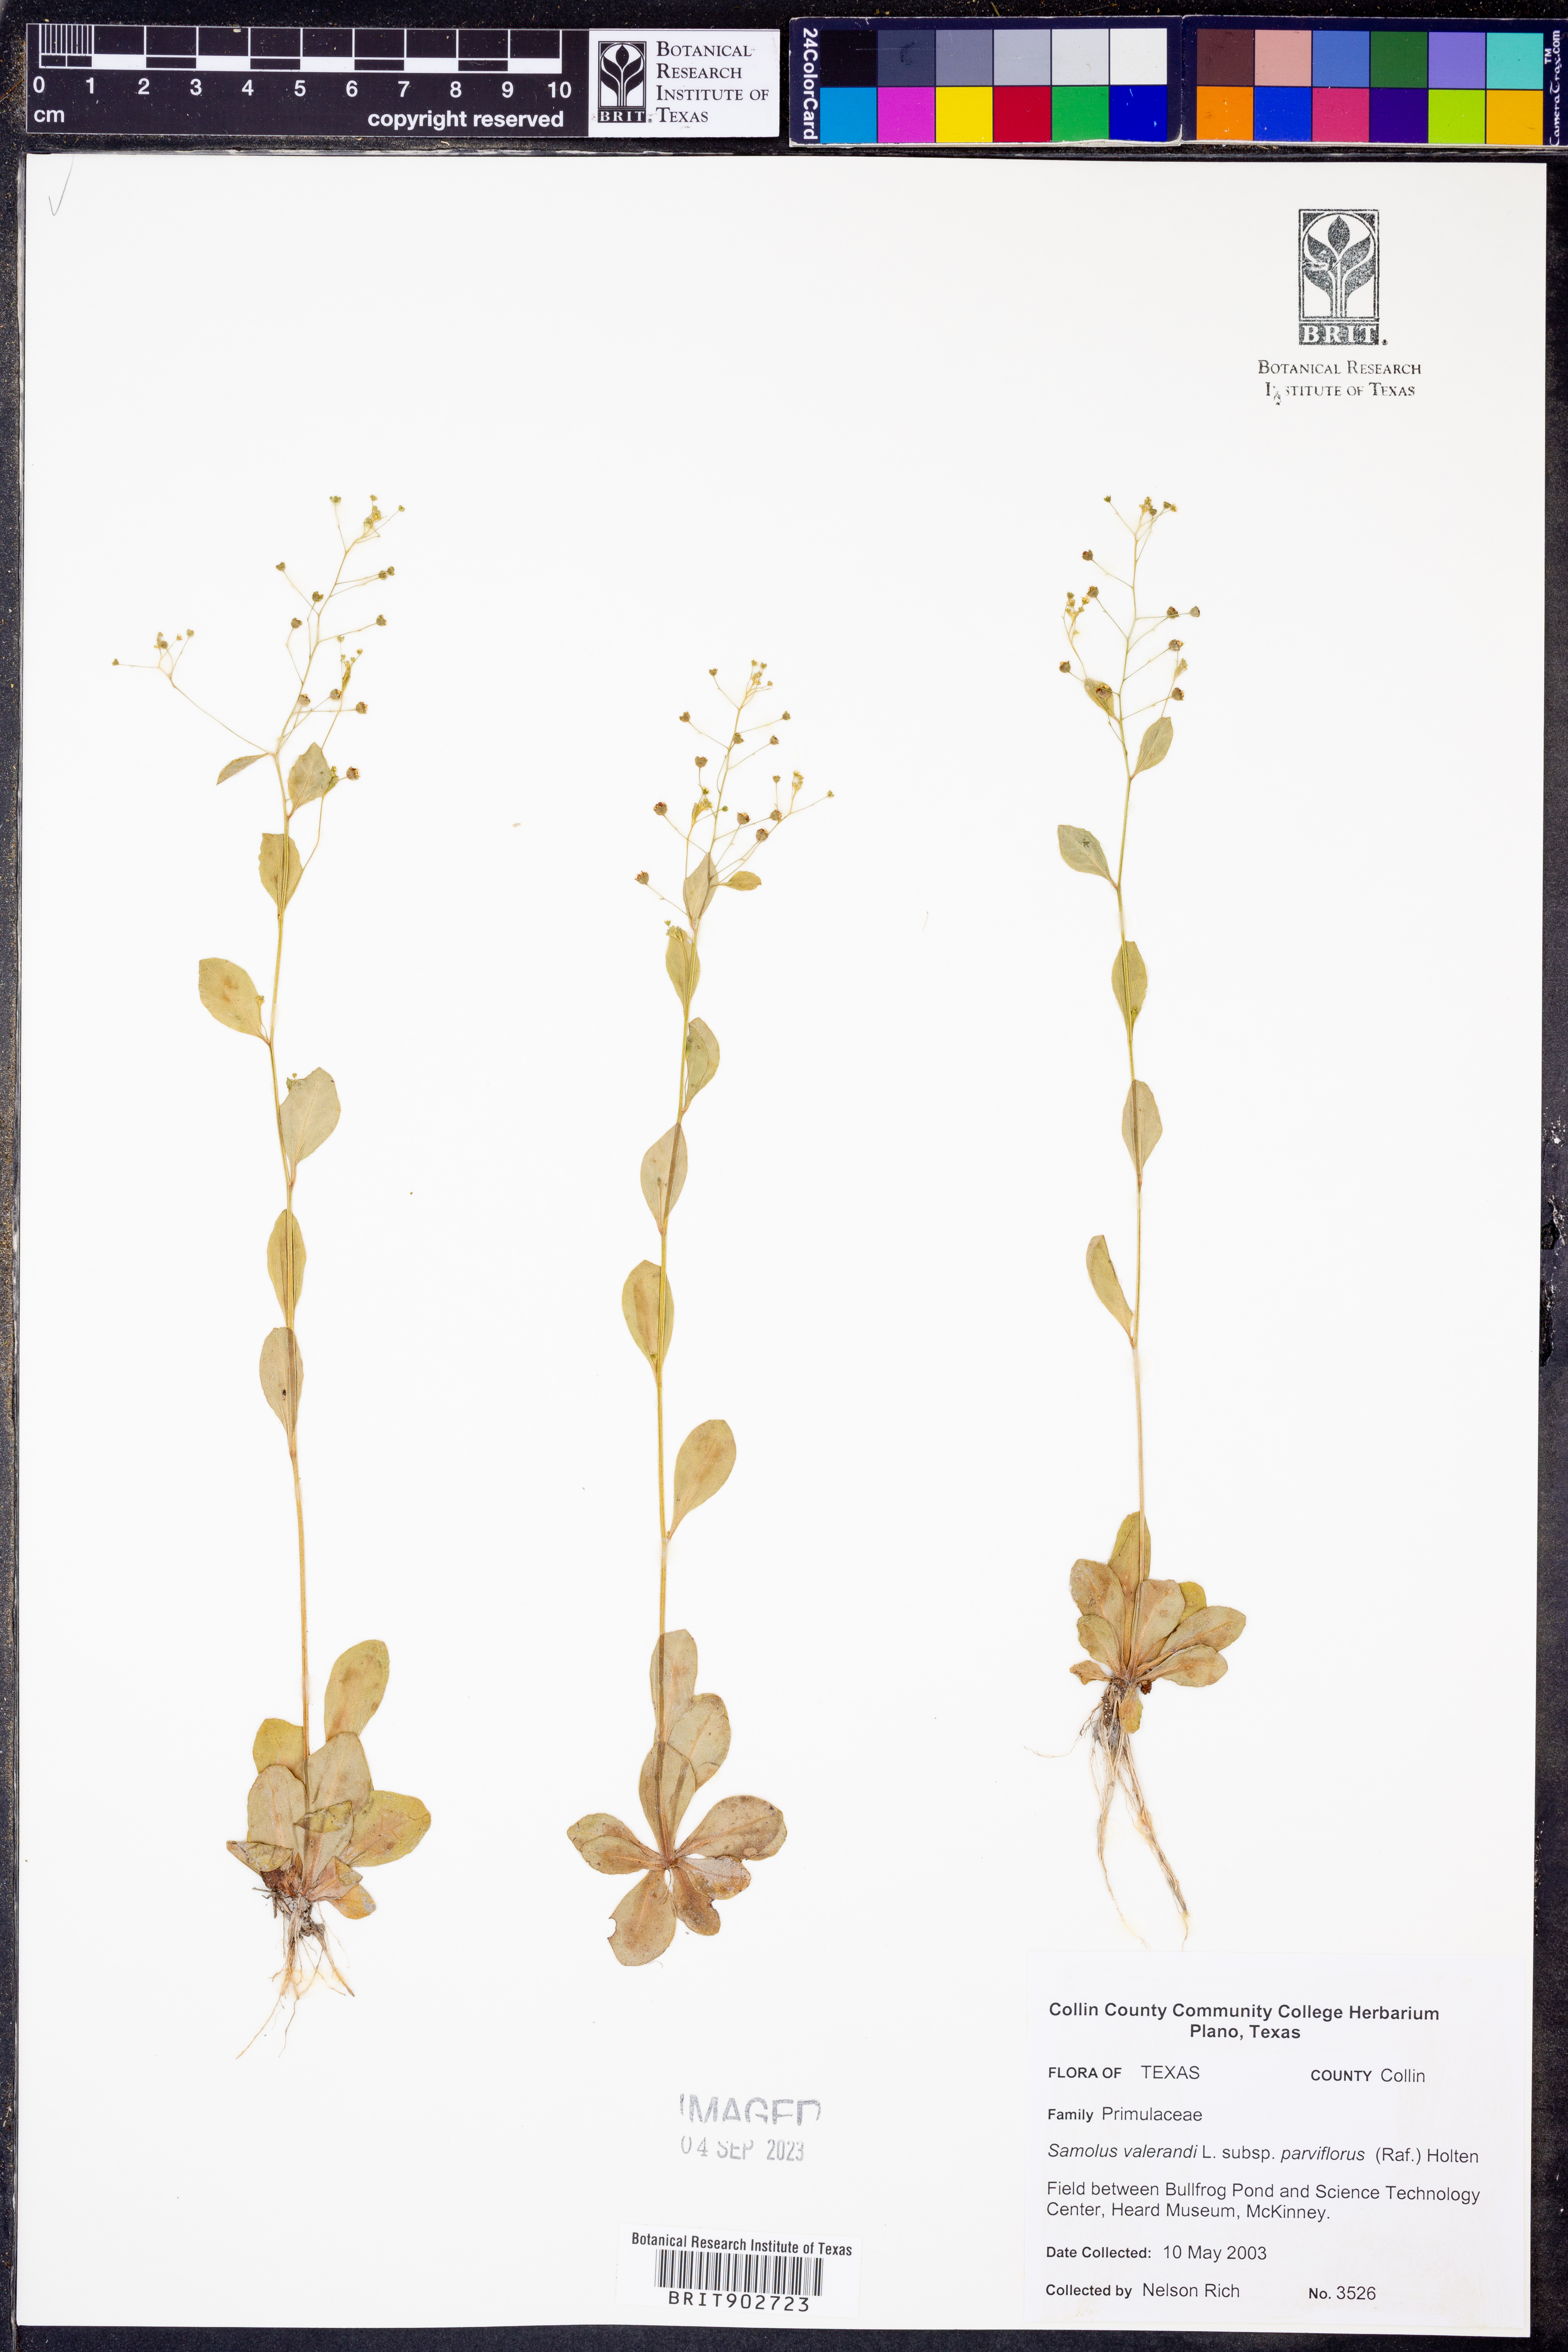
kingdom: Plantae
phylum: Tracheophyta
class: Magnoliopsida
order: Ericales
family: Primulaceae
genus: Samolus
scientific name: Samolus parviflorus
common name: False water pimpernel
